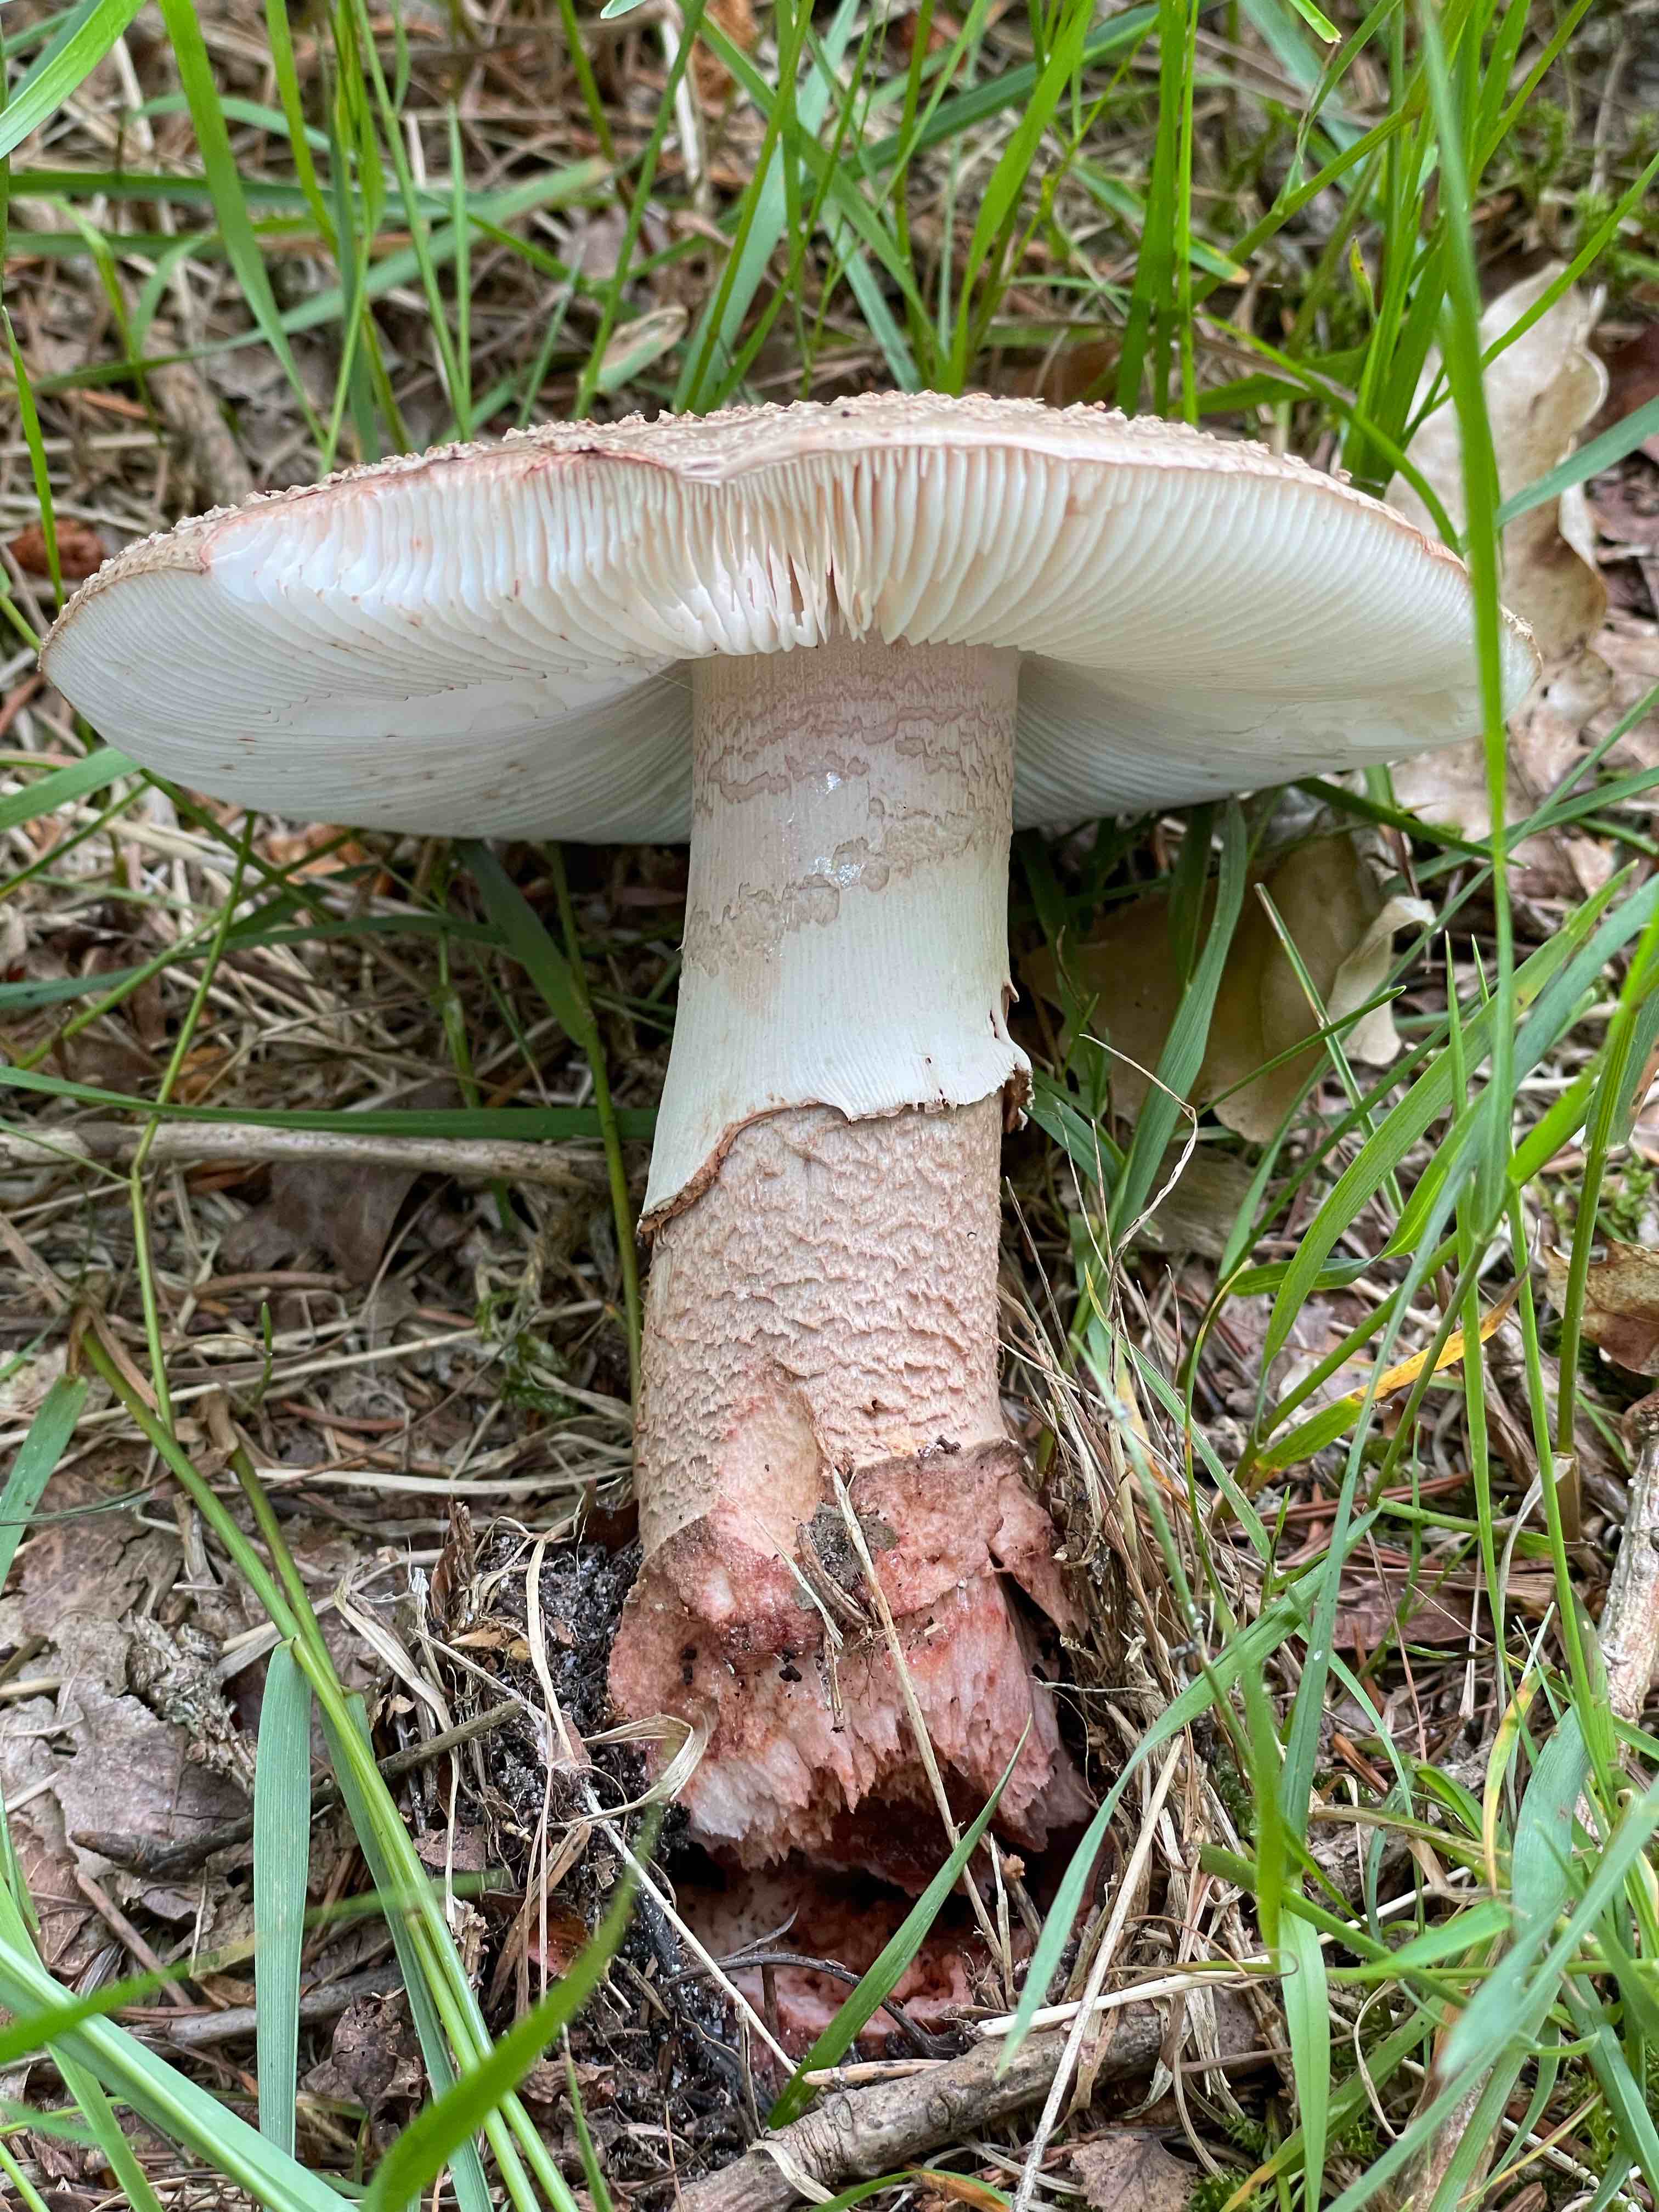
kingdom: Fungi
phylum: Basidiomycota
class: Agaricomycetes
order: Agaricales
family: Amanitaceae
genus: Amanita
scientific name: Amanita rubescens
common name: rødmende fluesvamp
